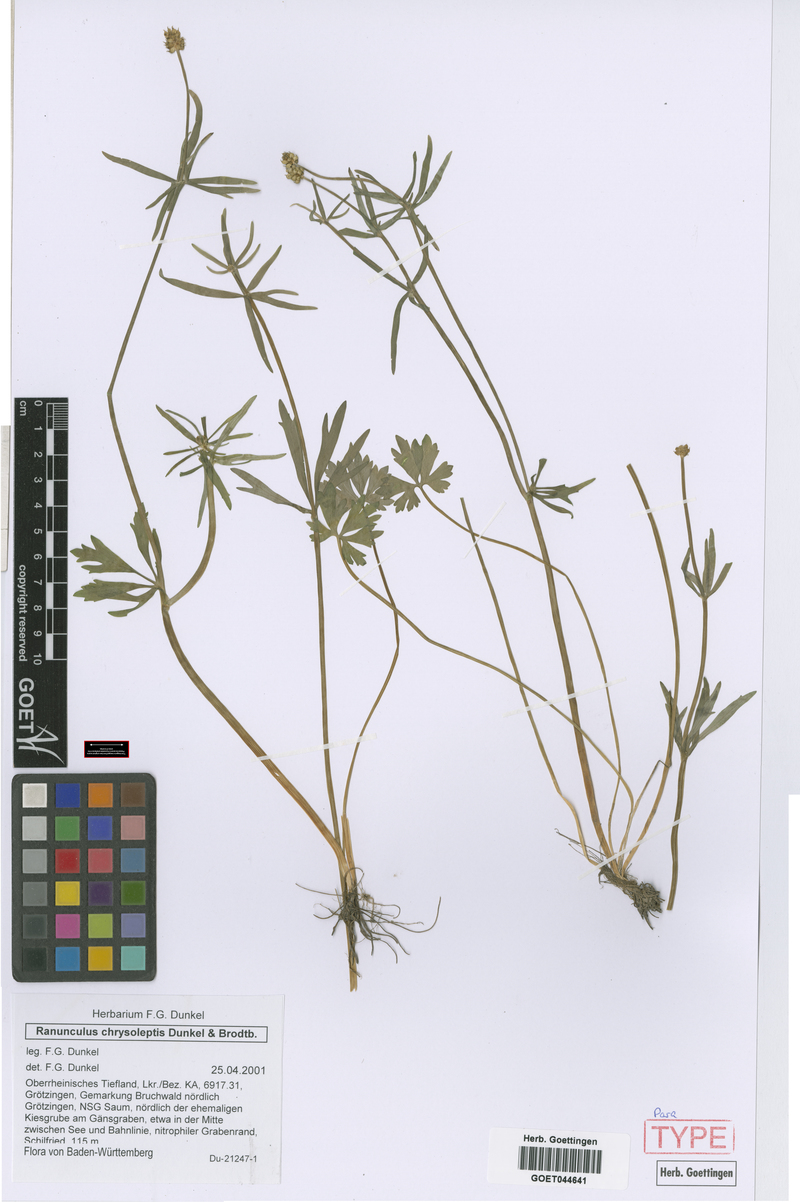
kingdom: Plantae
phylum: Tracheophyta
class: Magnoliopsida
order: Ranunculales
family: Ranunculaceae
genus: Ranunculus
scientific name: Ranunculus chrysoleptos
